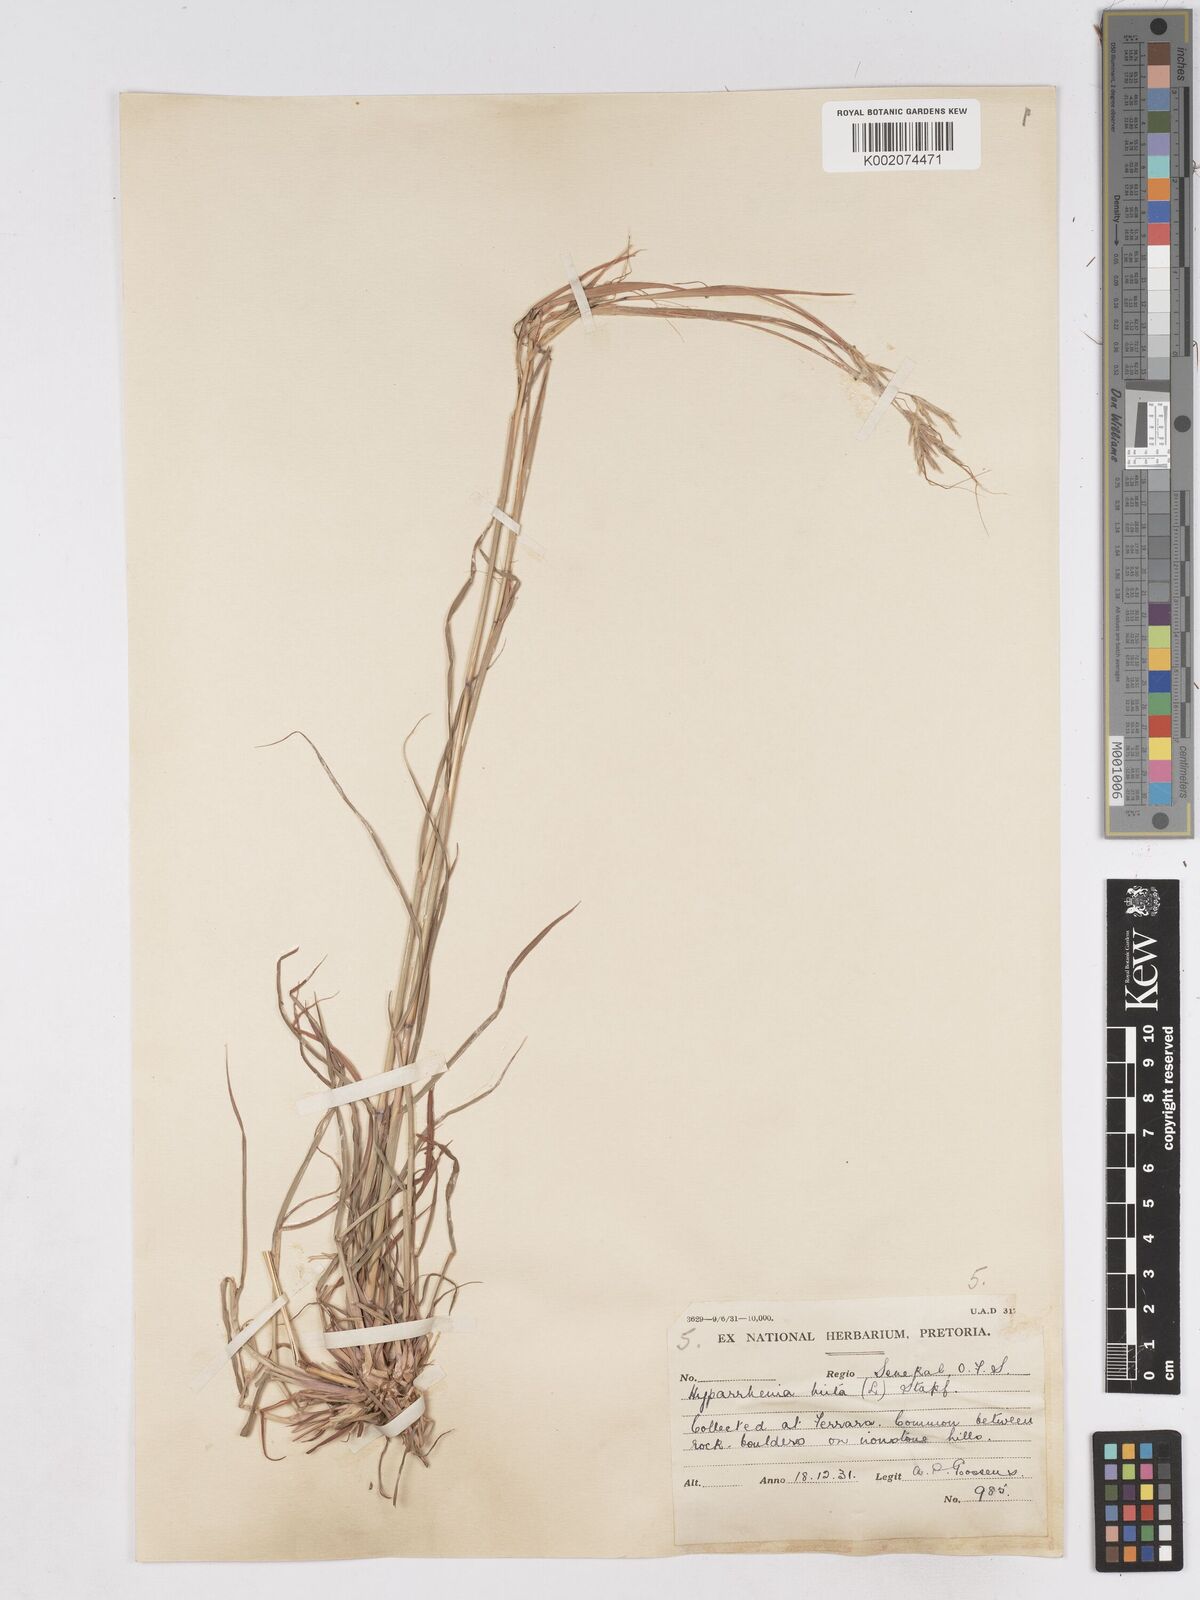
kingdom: Plantae
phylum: Tracheophyta
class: Liliopsida
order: Poales
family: Poaceae
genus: Hyparrhenia
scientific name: Hyparrhenia hirta
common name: Thatching grass
